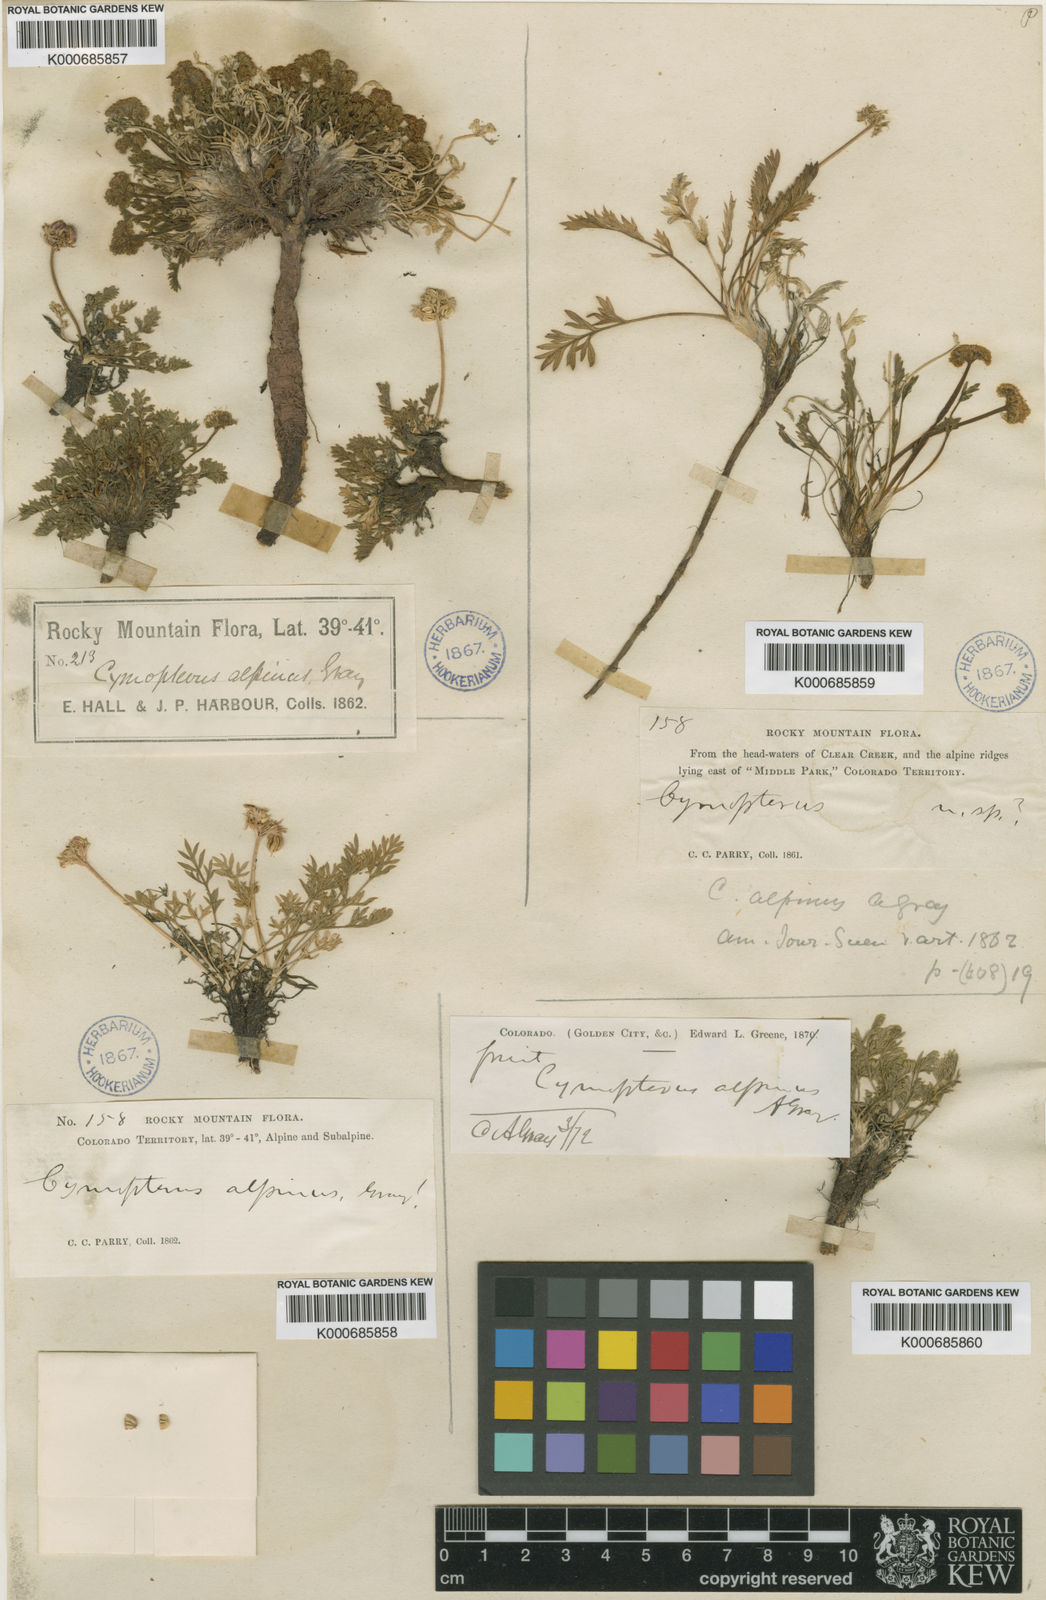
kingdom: Plantae
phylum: Tracheophyta
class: Magnoliopsida
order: Apiales
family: Apiaceae
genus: Oreoxis
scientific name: Oreoxis alpina
